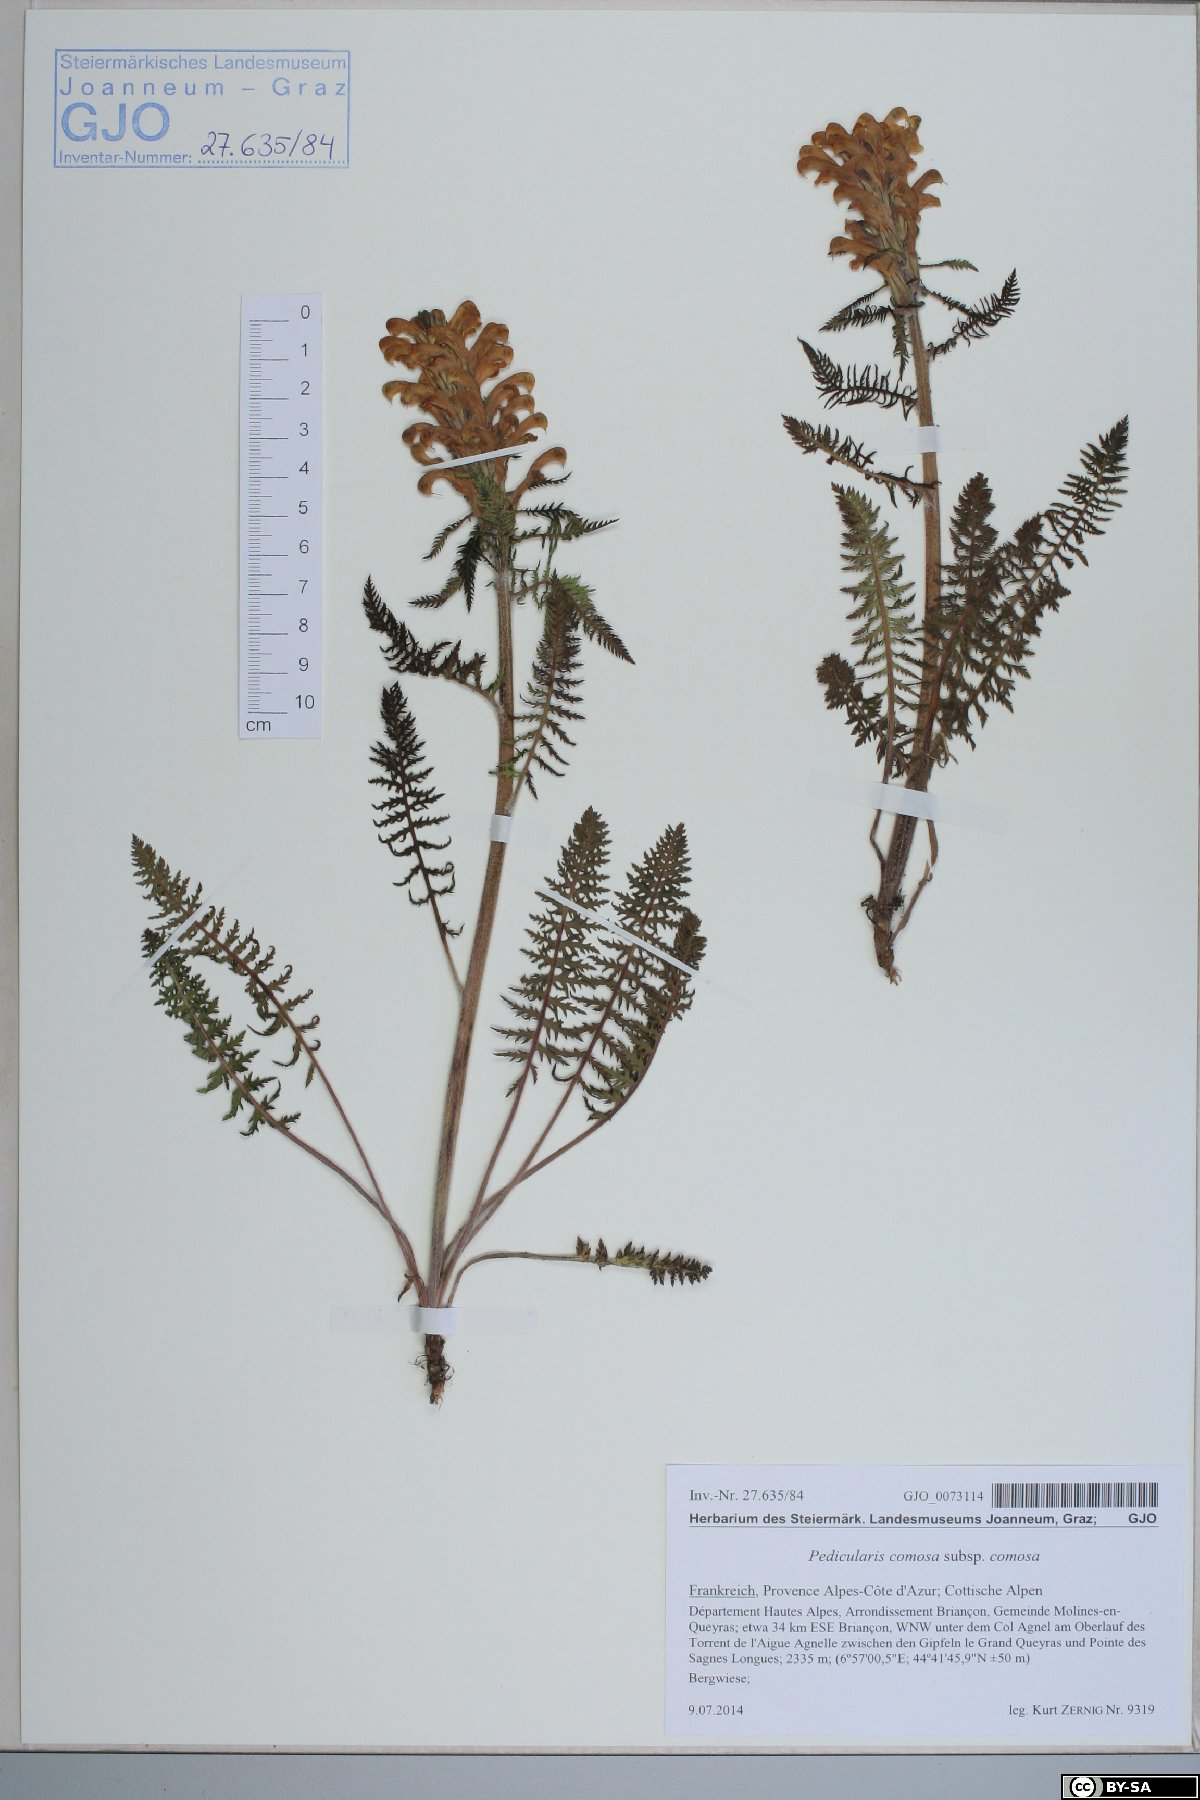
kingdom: Plantae
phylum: Tracheophyta
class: Magnoliopsida
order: Lamiales
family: Orobanchaceae
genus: Pedicularis
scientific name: Pedicularis comosa
